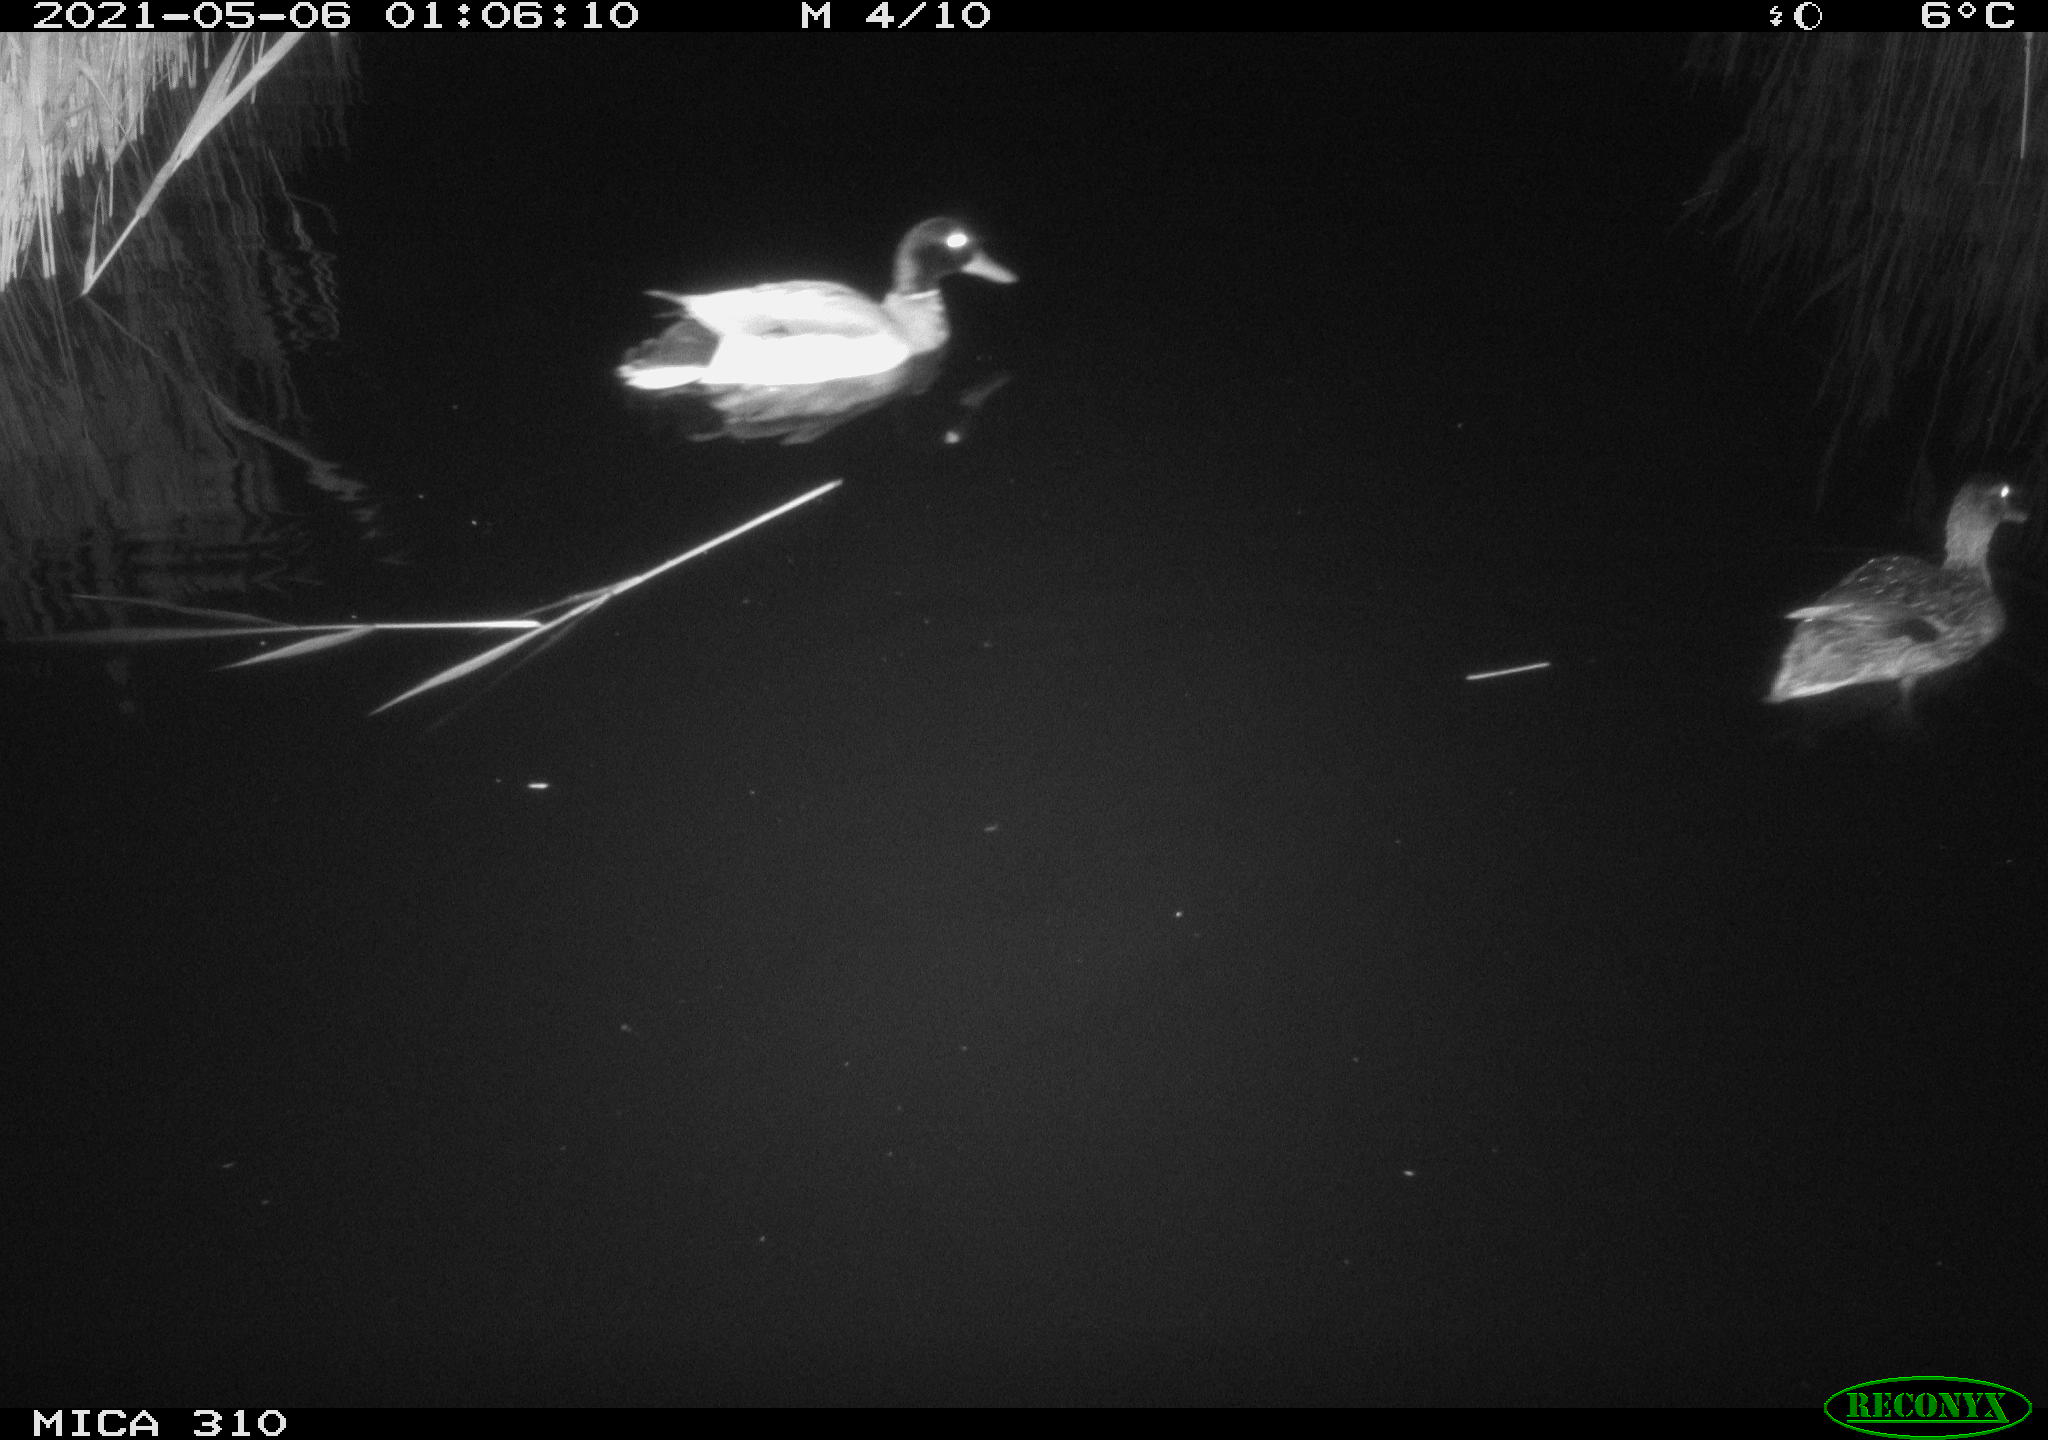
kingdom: Animalia
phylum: Chordata
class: Aves
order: Anseriformes
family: Anatidae
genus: Anas
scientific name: Anas platyrhynchos
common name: Mallard
